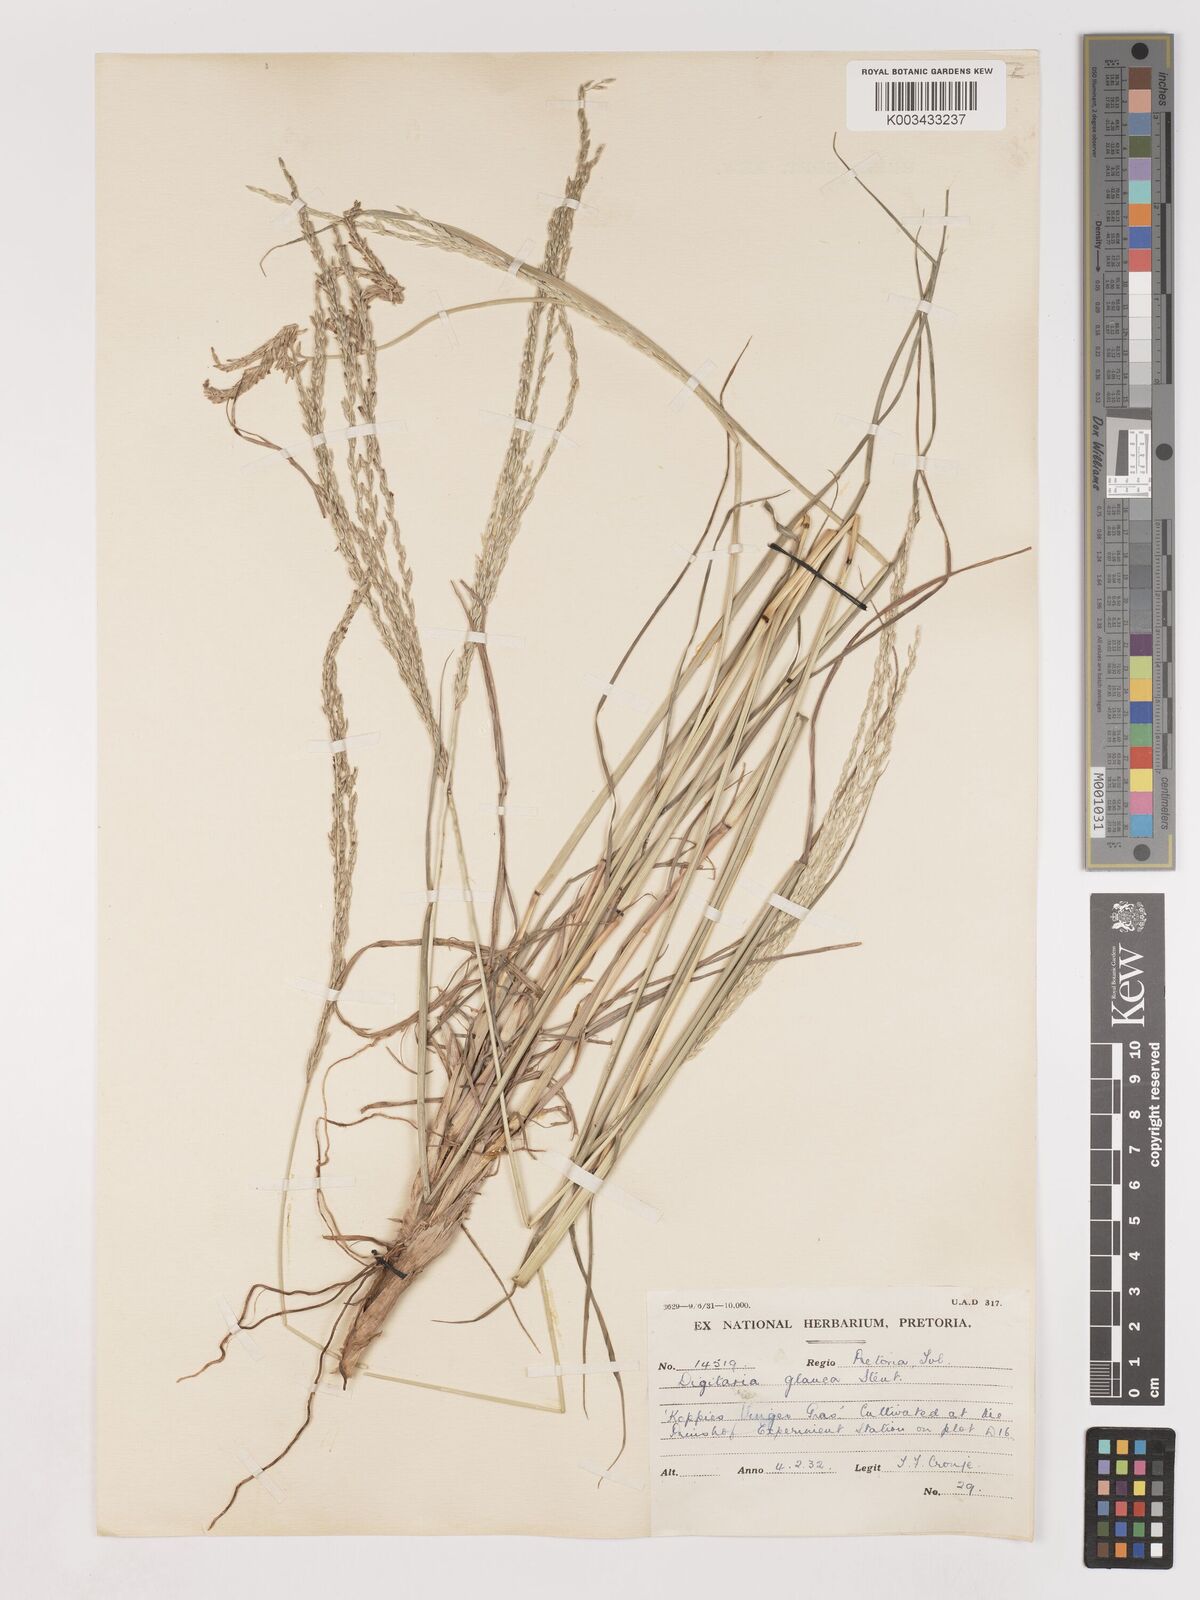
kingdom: Plantae
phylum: Tracheophyta
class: Liliopsida
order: Poales
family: Poaceae
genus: Digitaria
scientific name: Digitaria eriantha
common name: Digitgrass
